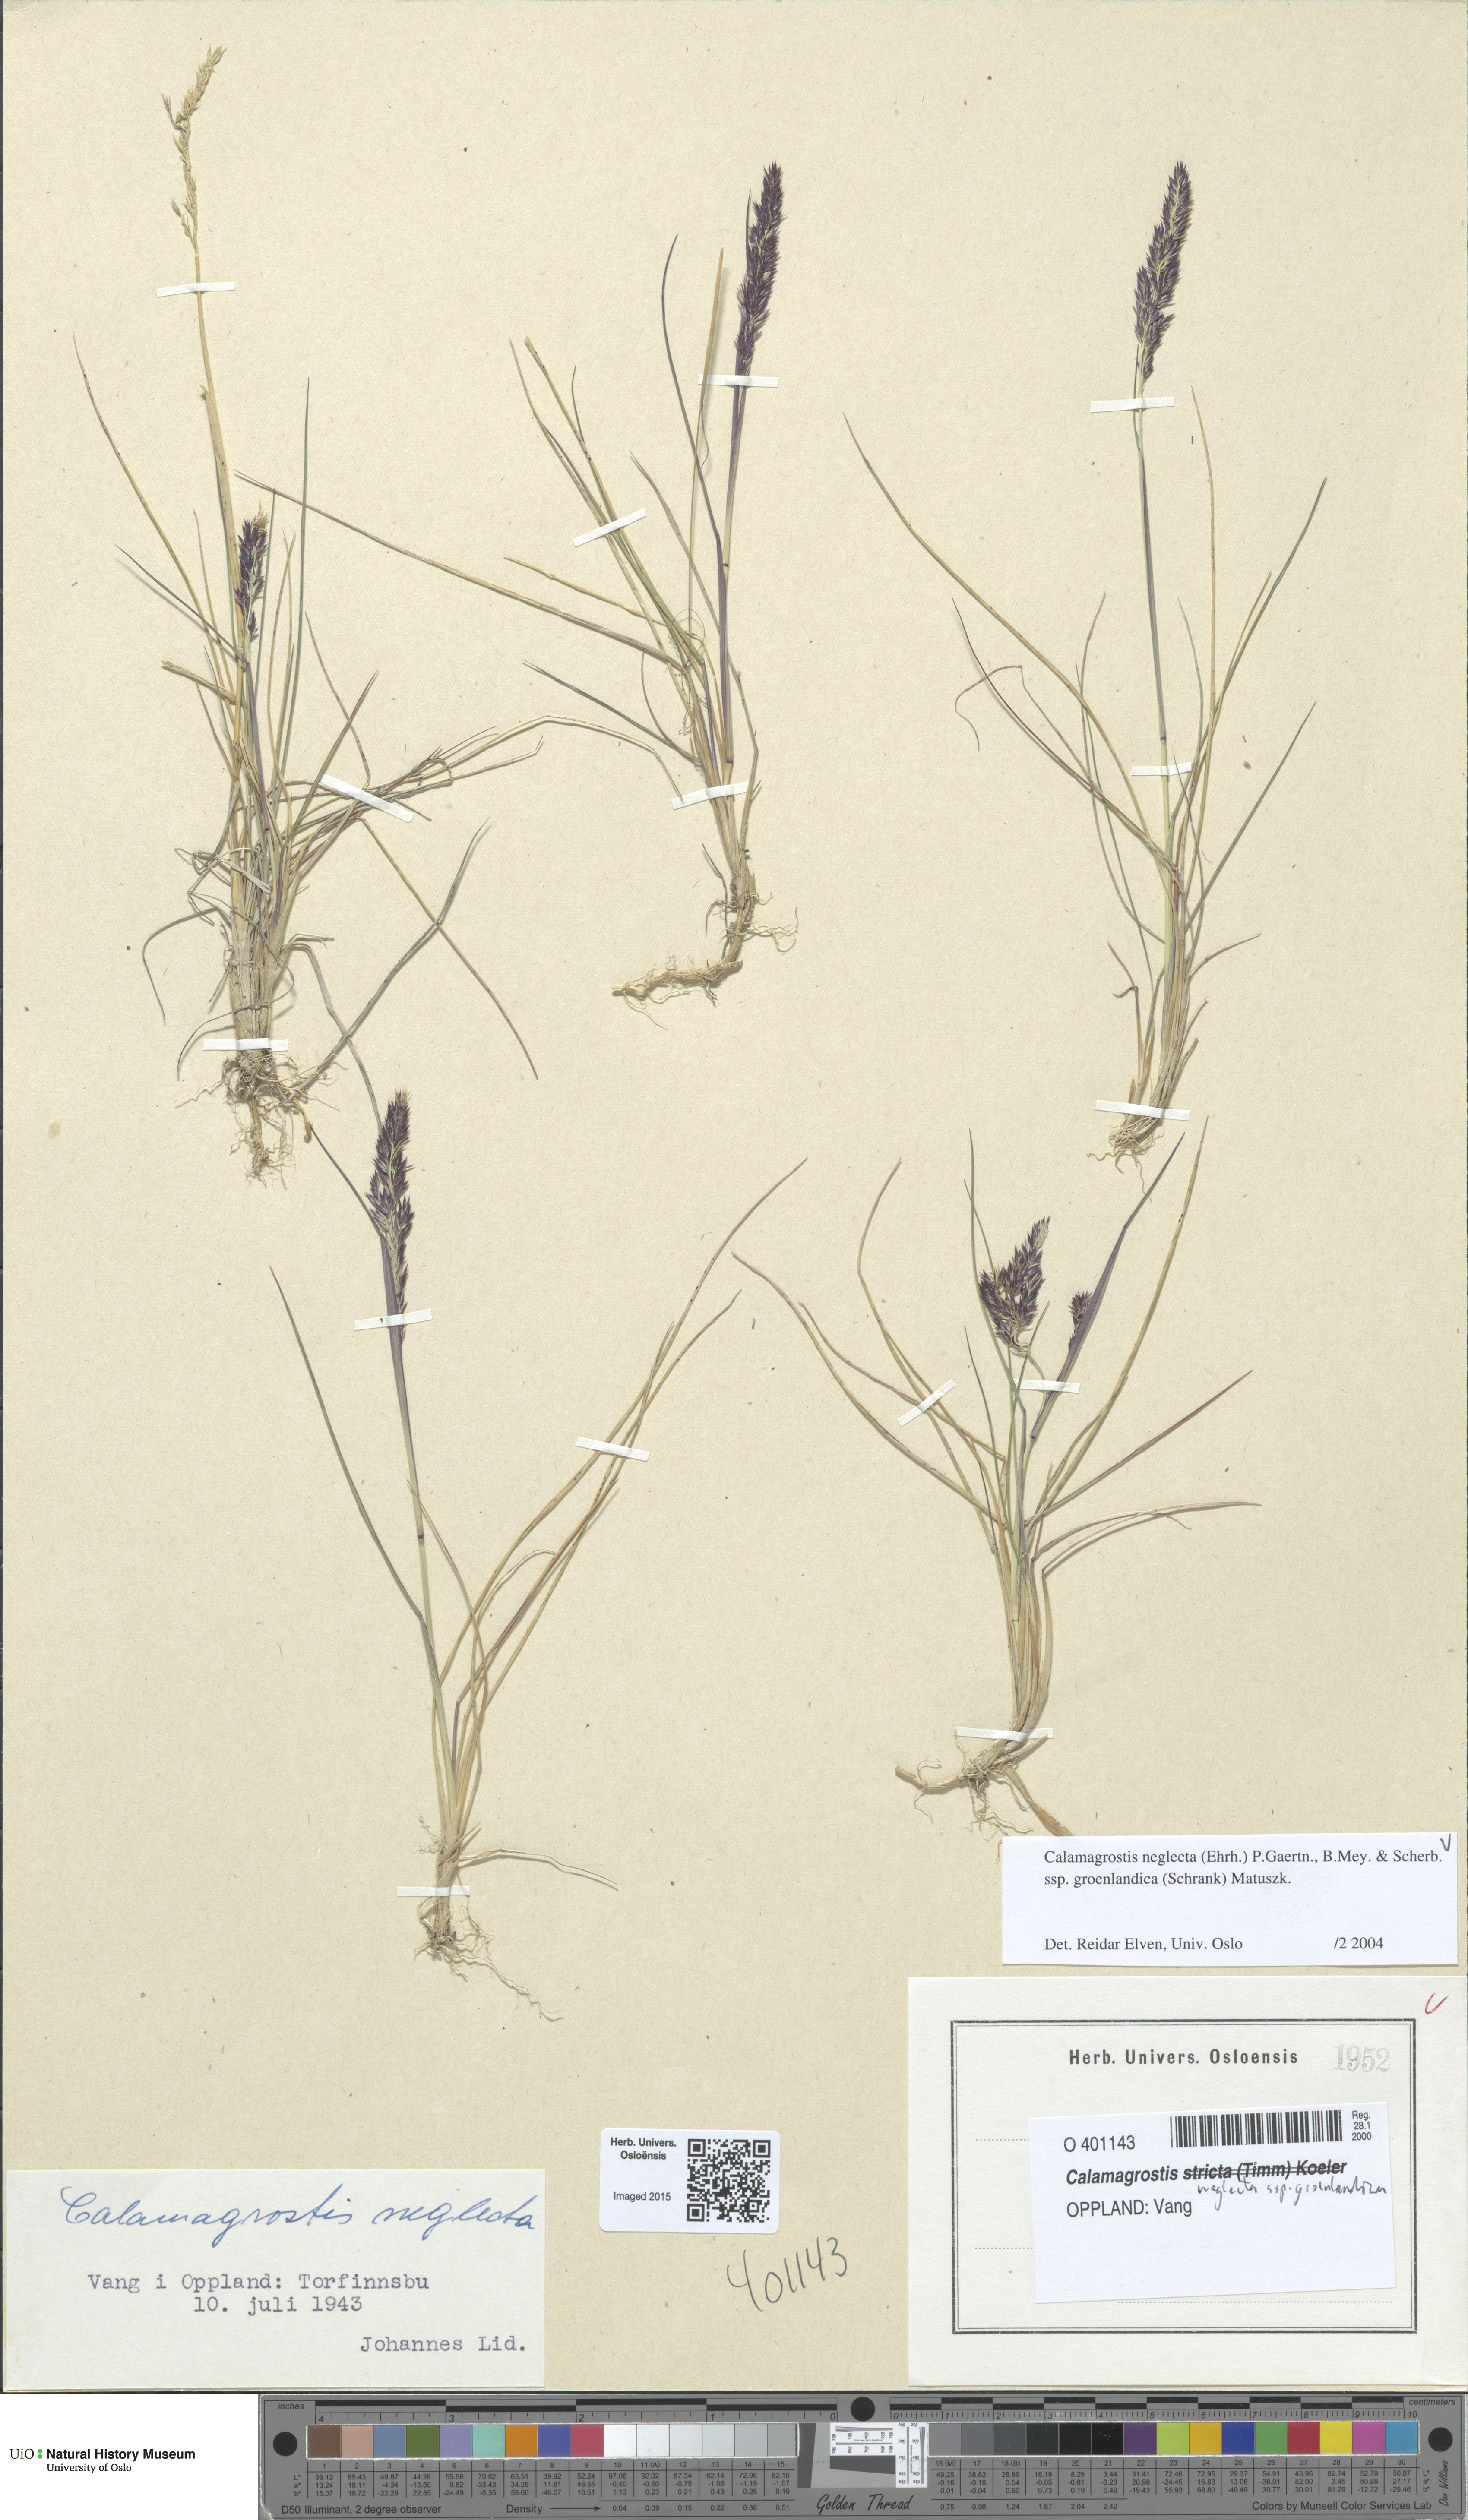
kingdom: Plantae
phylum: Tracheophyta
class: Liliopsida
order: Poales
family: Poaceae
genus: Calamagrostis
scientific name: Calamagrostis stricta
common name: Narrow small-reed
